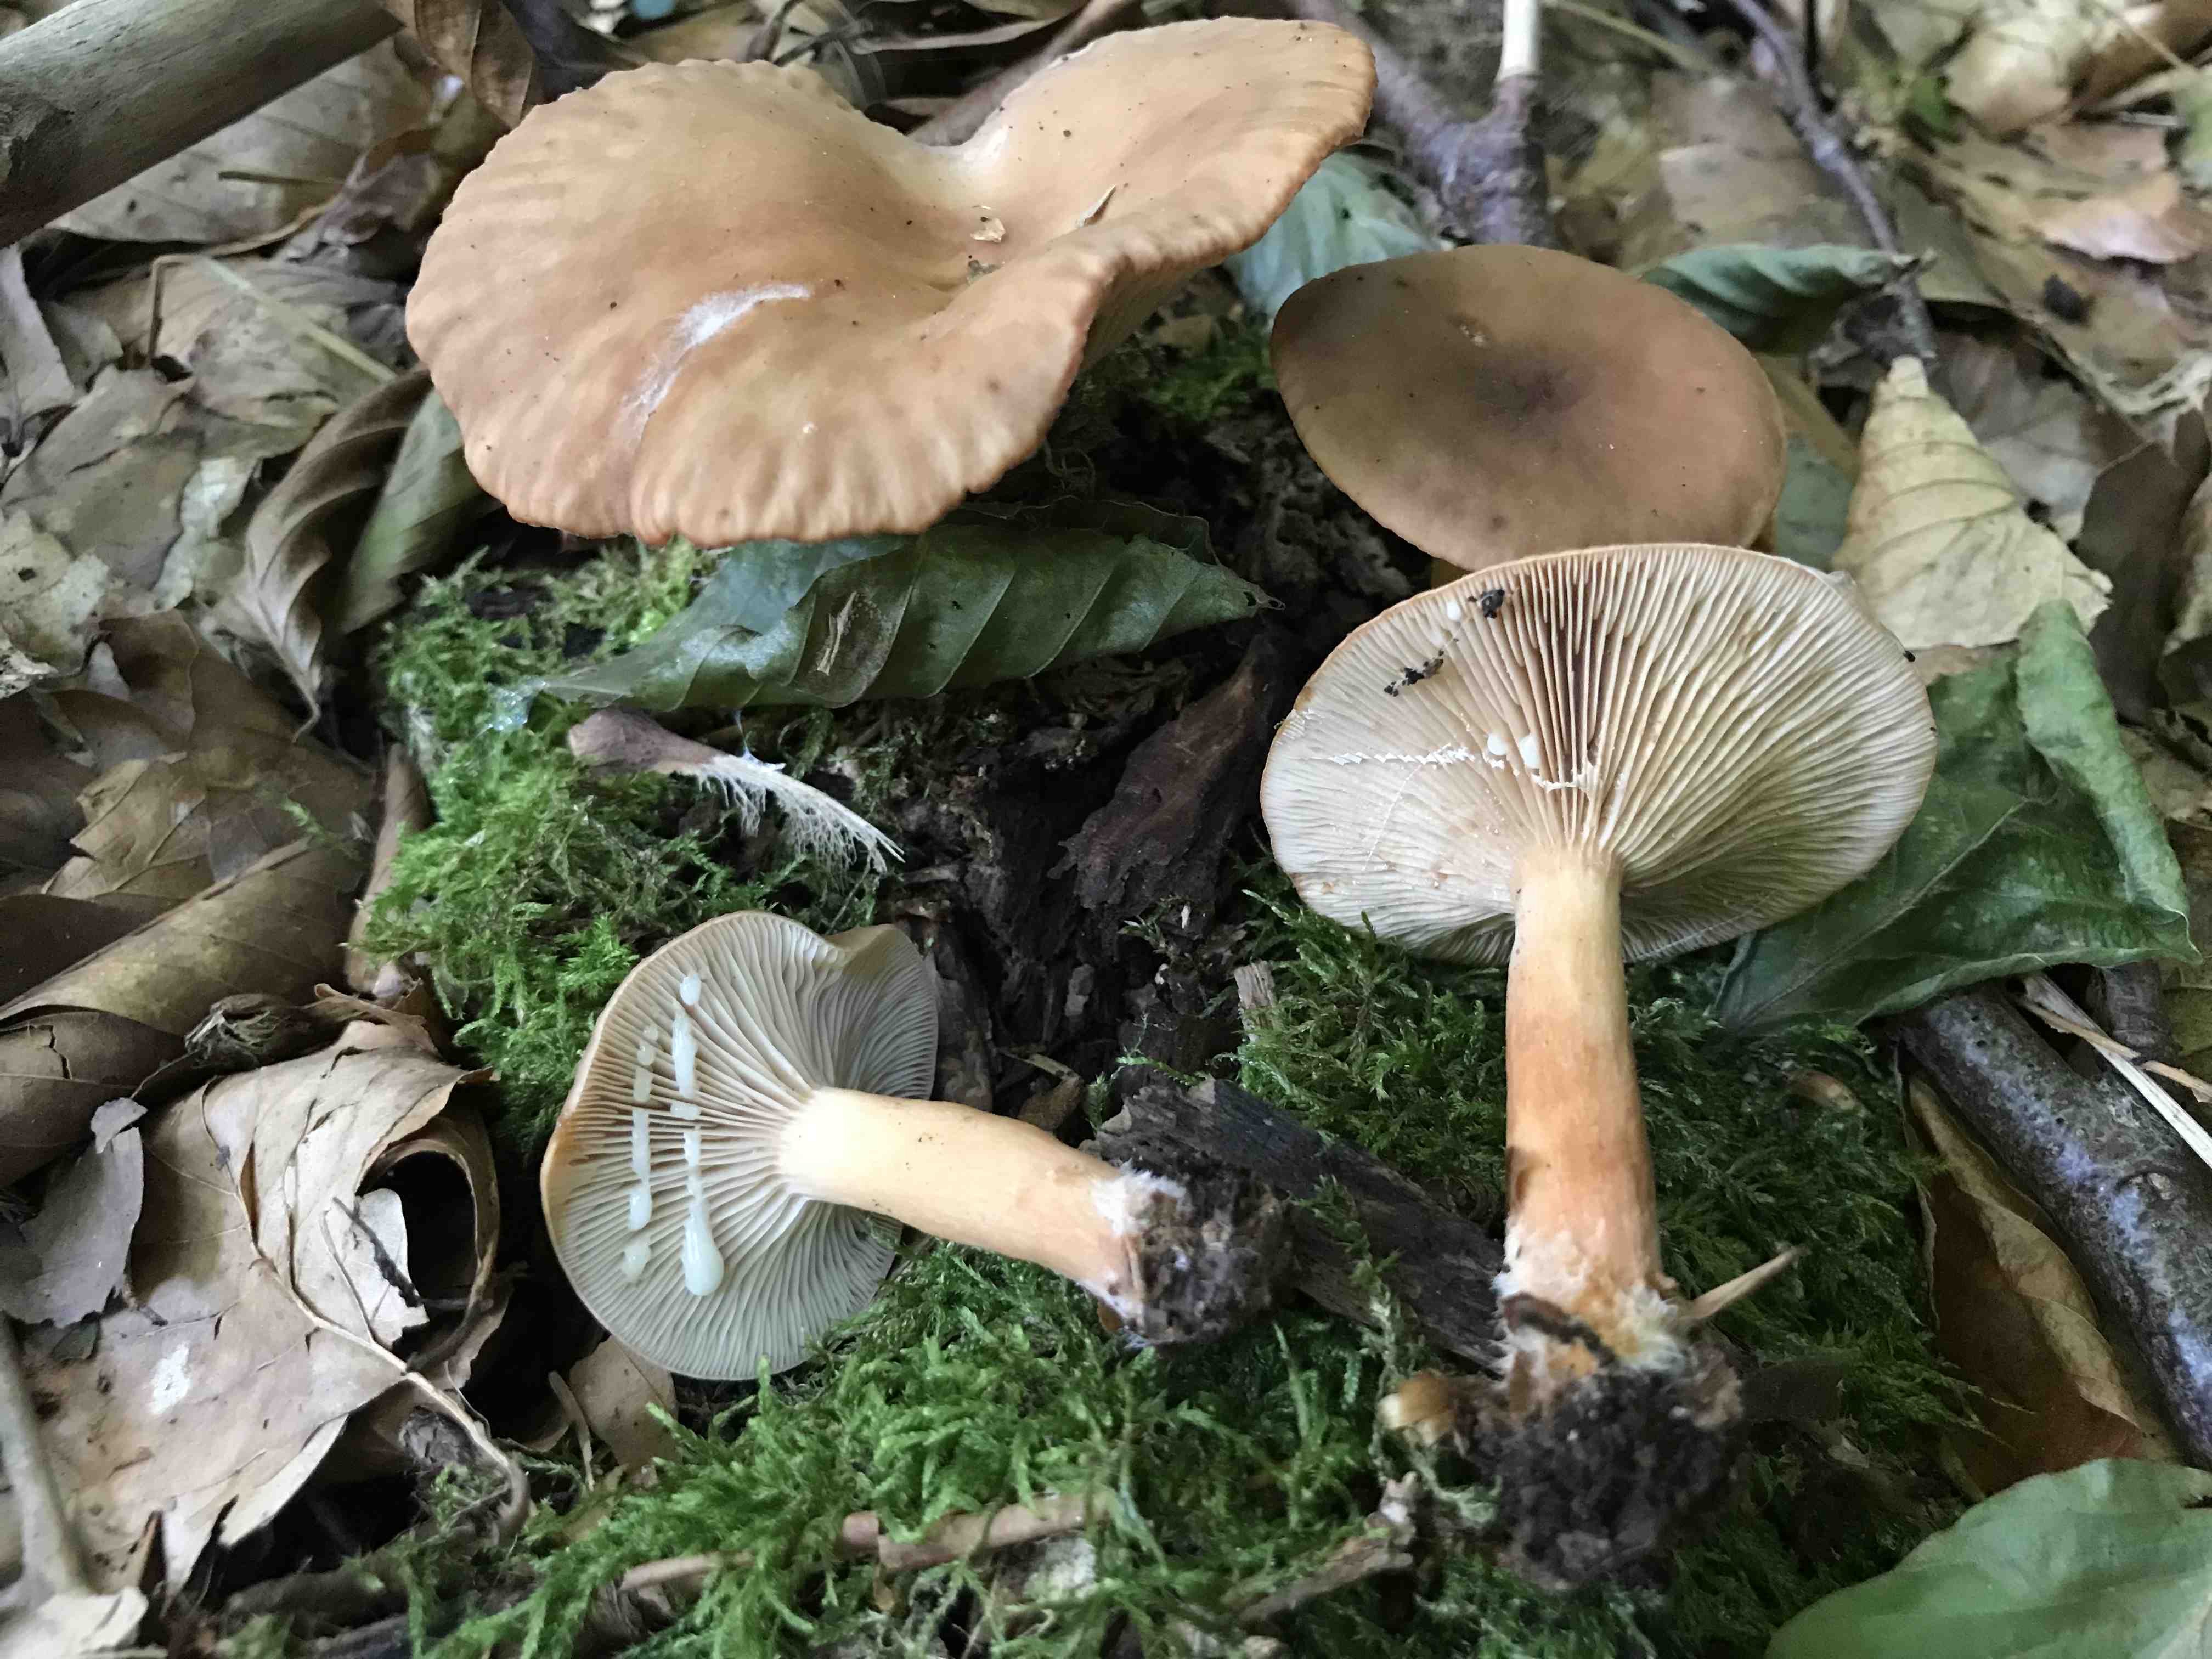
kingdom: Fungi
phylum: Basidiomycota
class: Agaricomycetes
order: Russulales
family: Russulaceae
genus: Lactarius
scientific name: Lactarius tabidus
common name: rynket mælkehat
